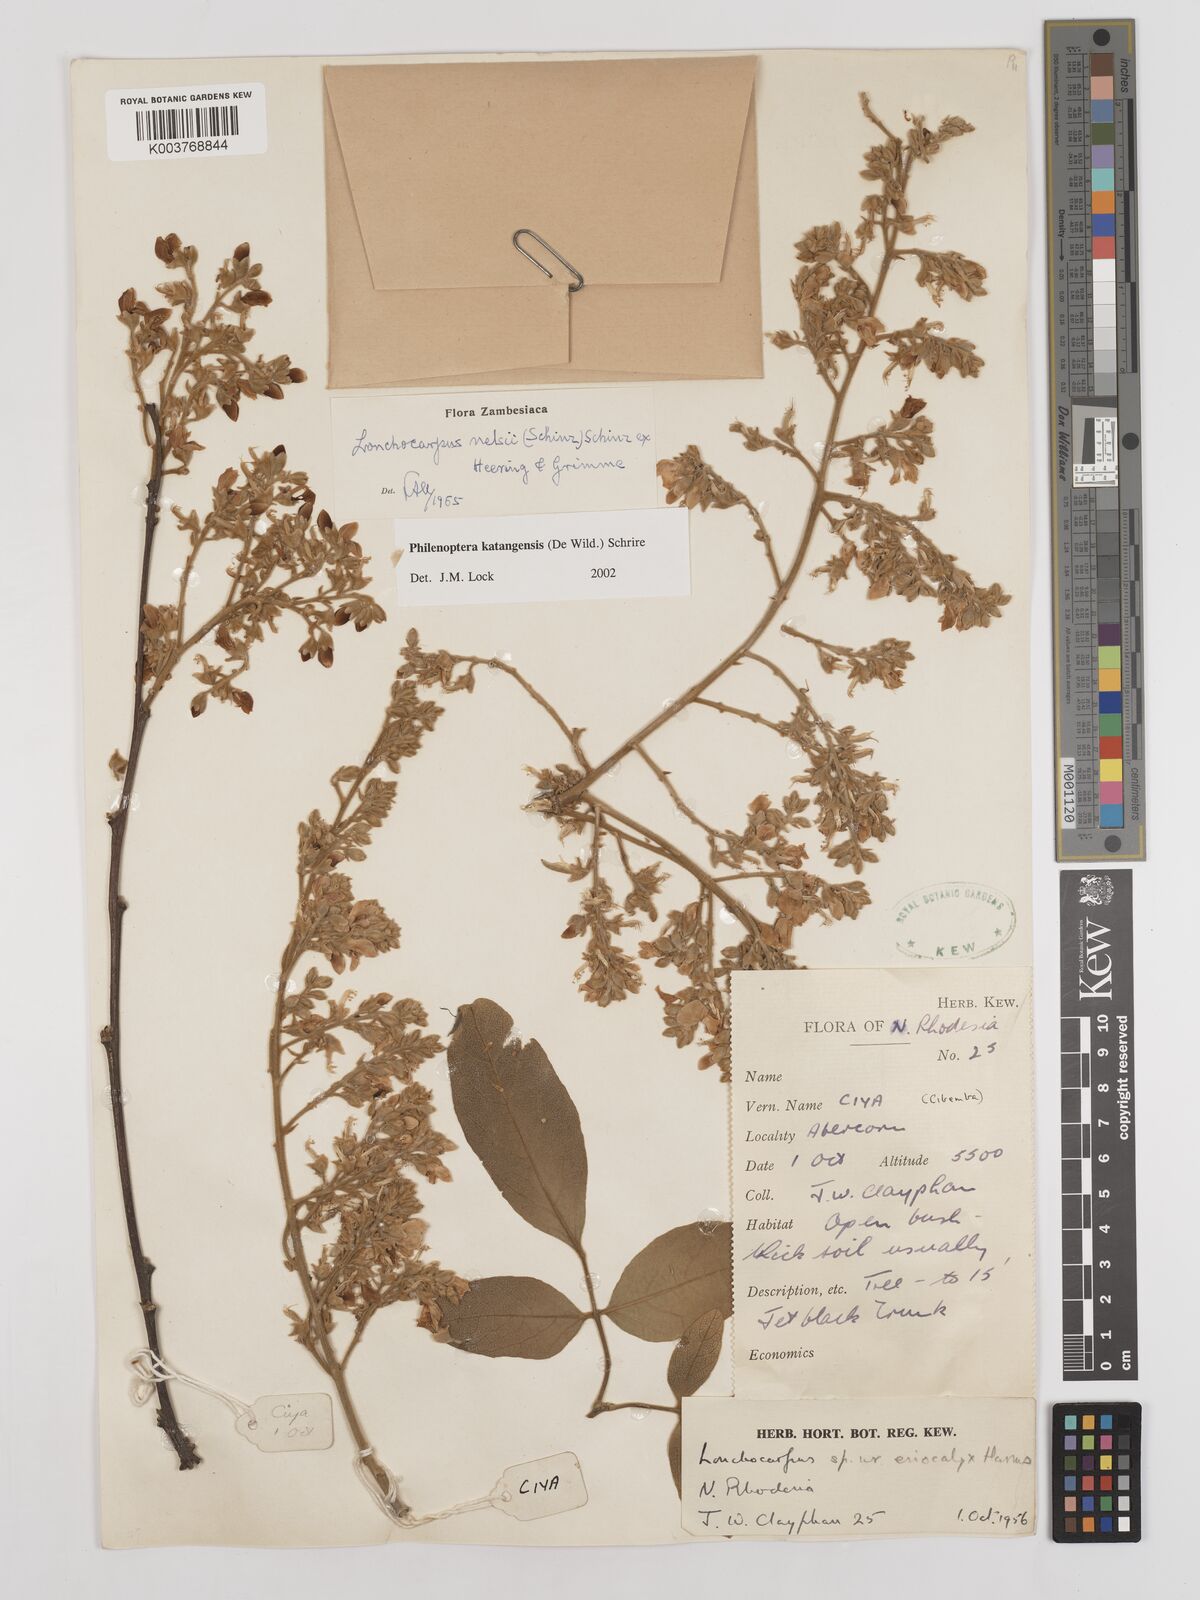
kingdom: Plantae
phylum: Tracheophyta
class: Magnoliopsida
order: Fabales
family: Fabaceae
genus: Philenoptera
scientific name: Philenoptera katangensis
